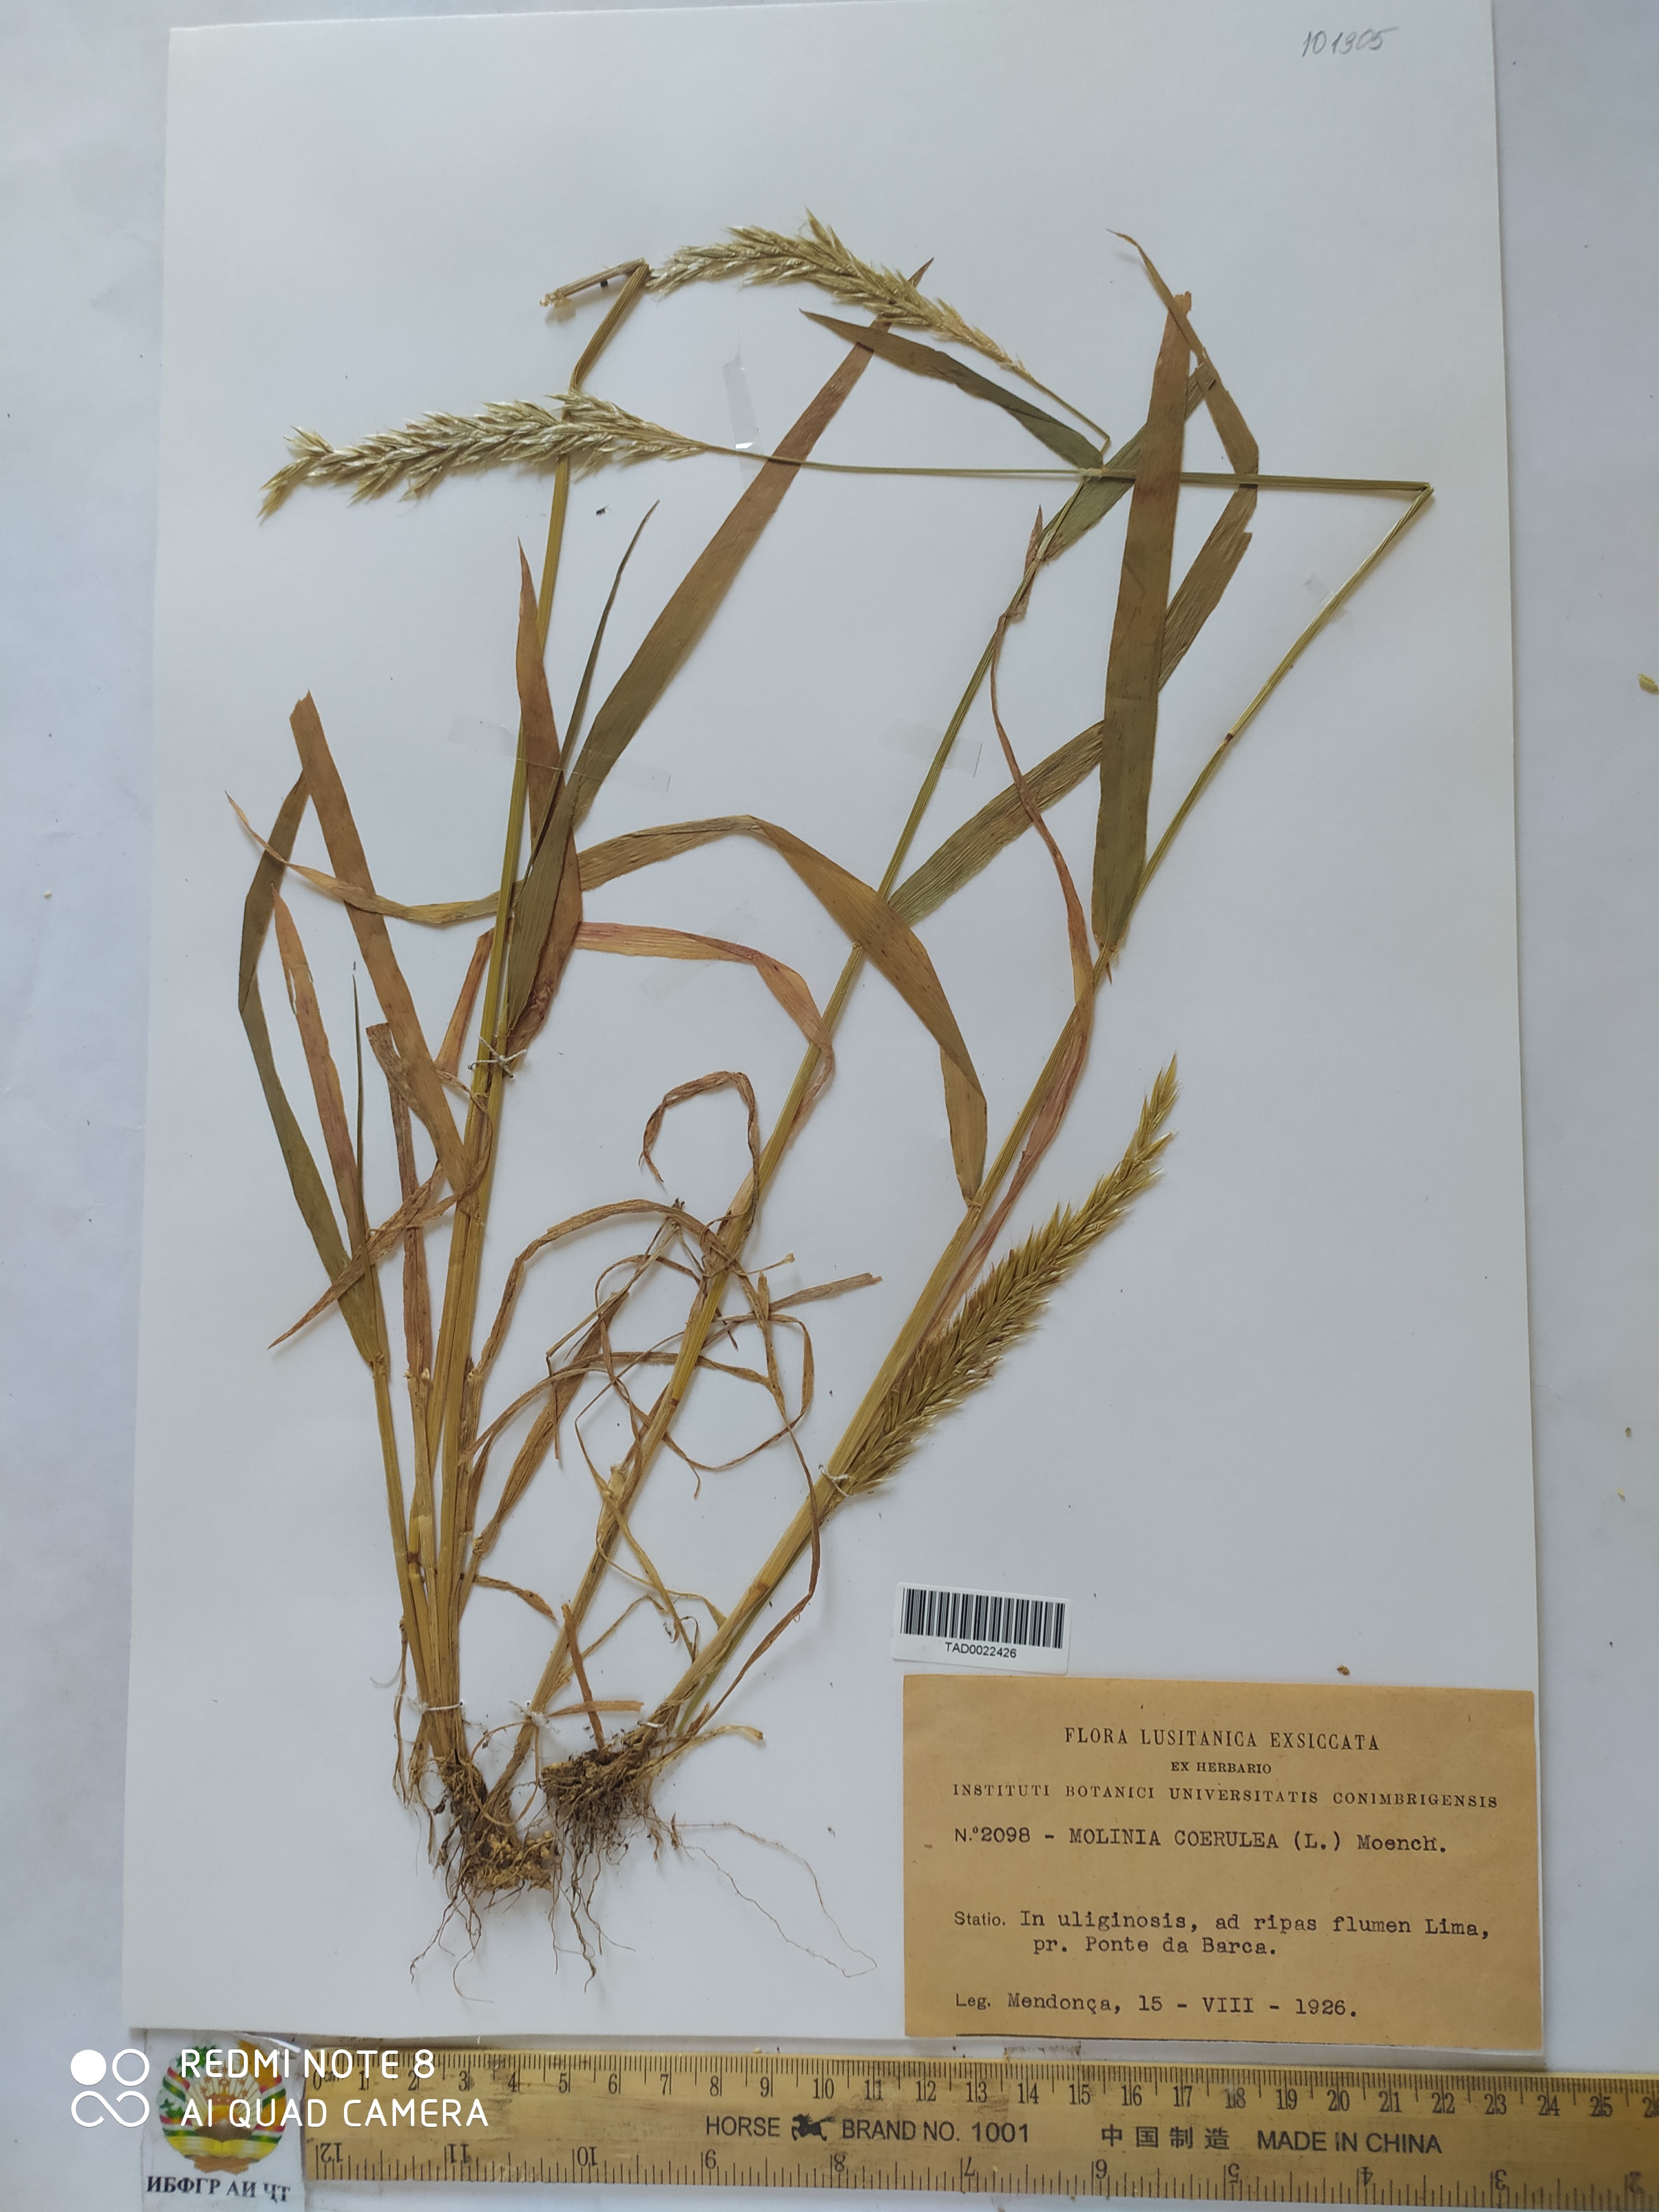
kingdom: Plantae
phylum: Tracheophyta
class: Liliopsida
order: Poales
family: Poaceae
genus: Molinia
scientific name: Molinia caerulea
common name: Purple moor-grass
